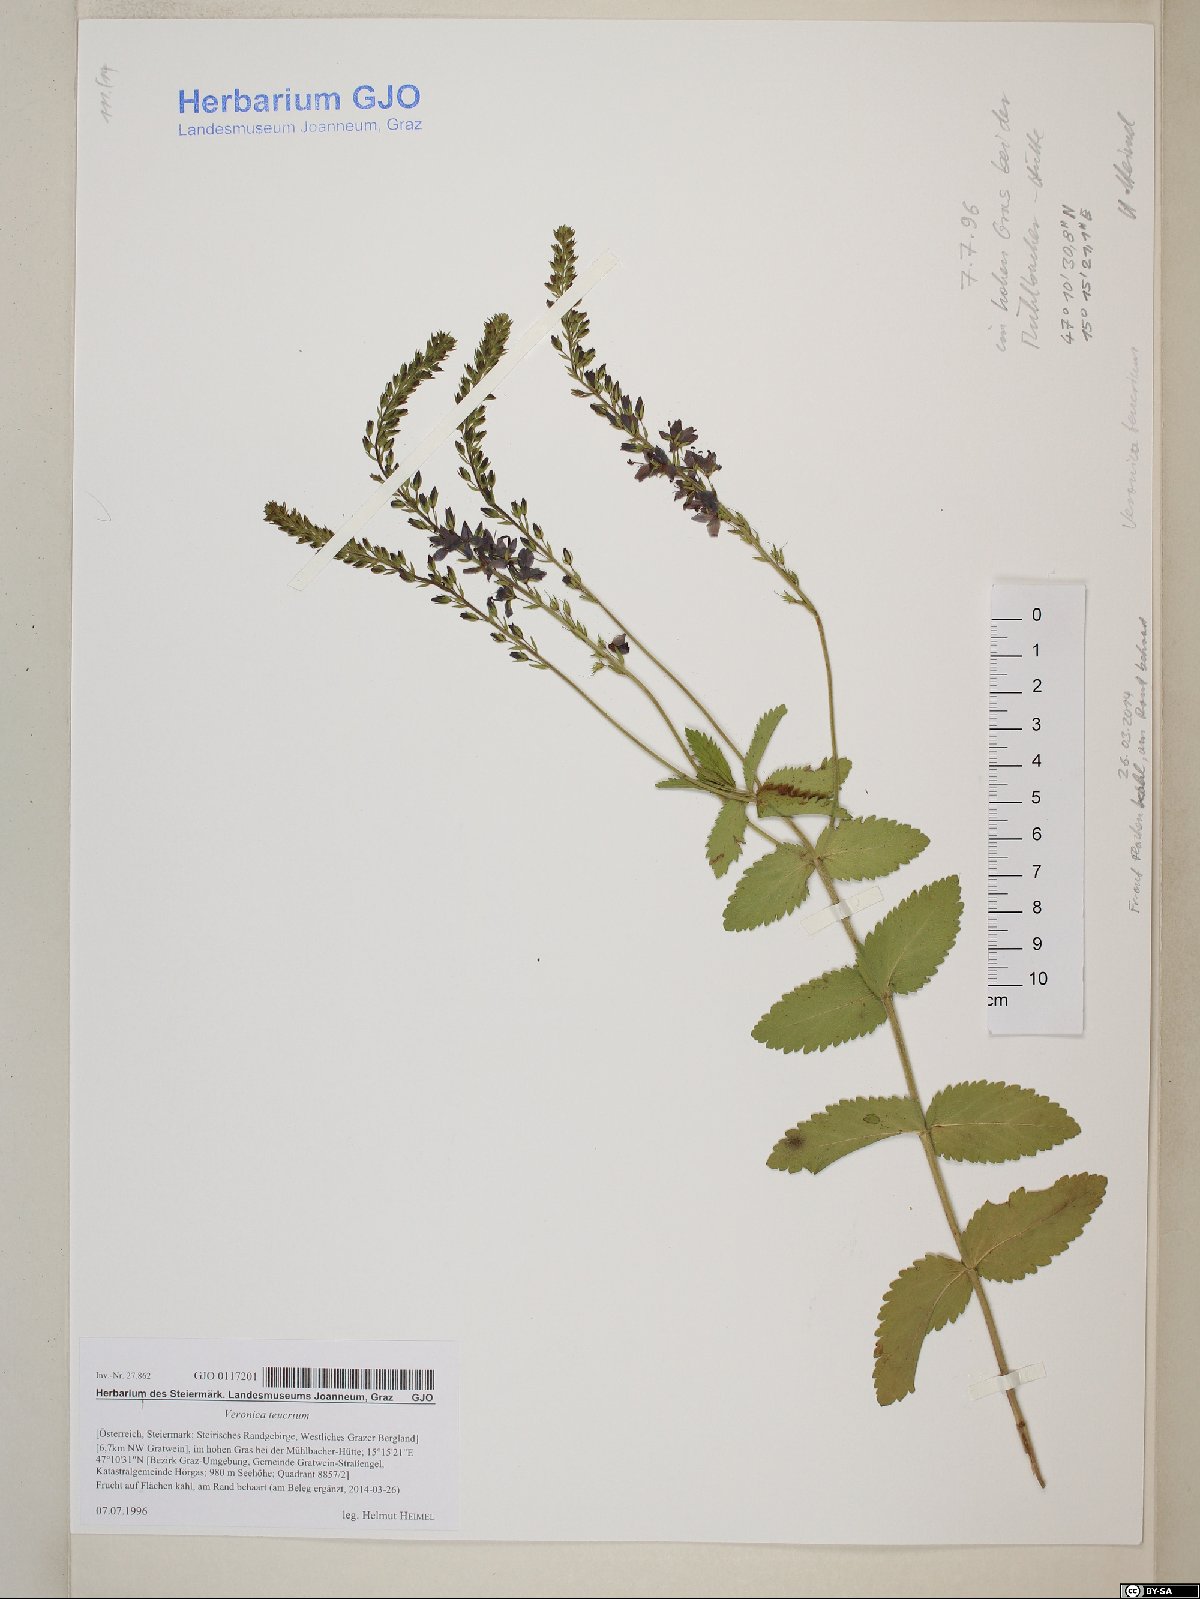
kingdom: Plantae
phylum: Tracheophyta
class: Magnoliopsida
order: Lamiales
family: Plantaginaceae
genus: Veronica
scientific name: Veronica teucrium
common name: Large speedwell
